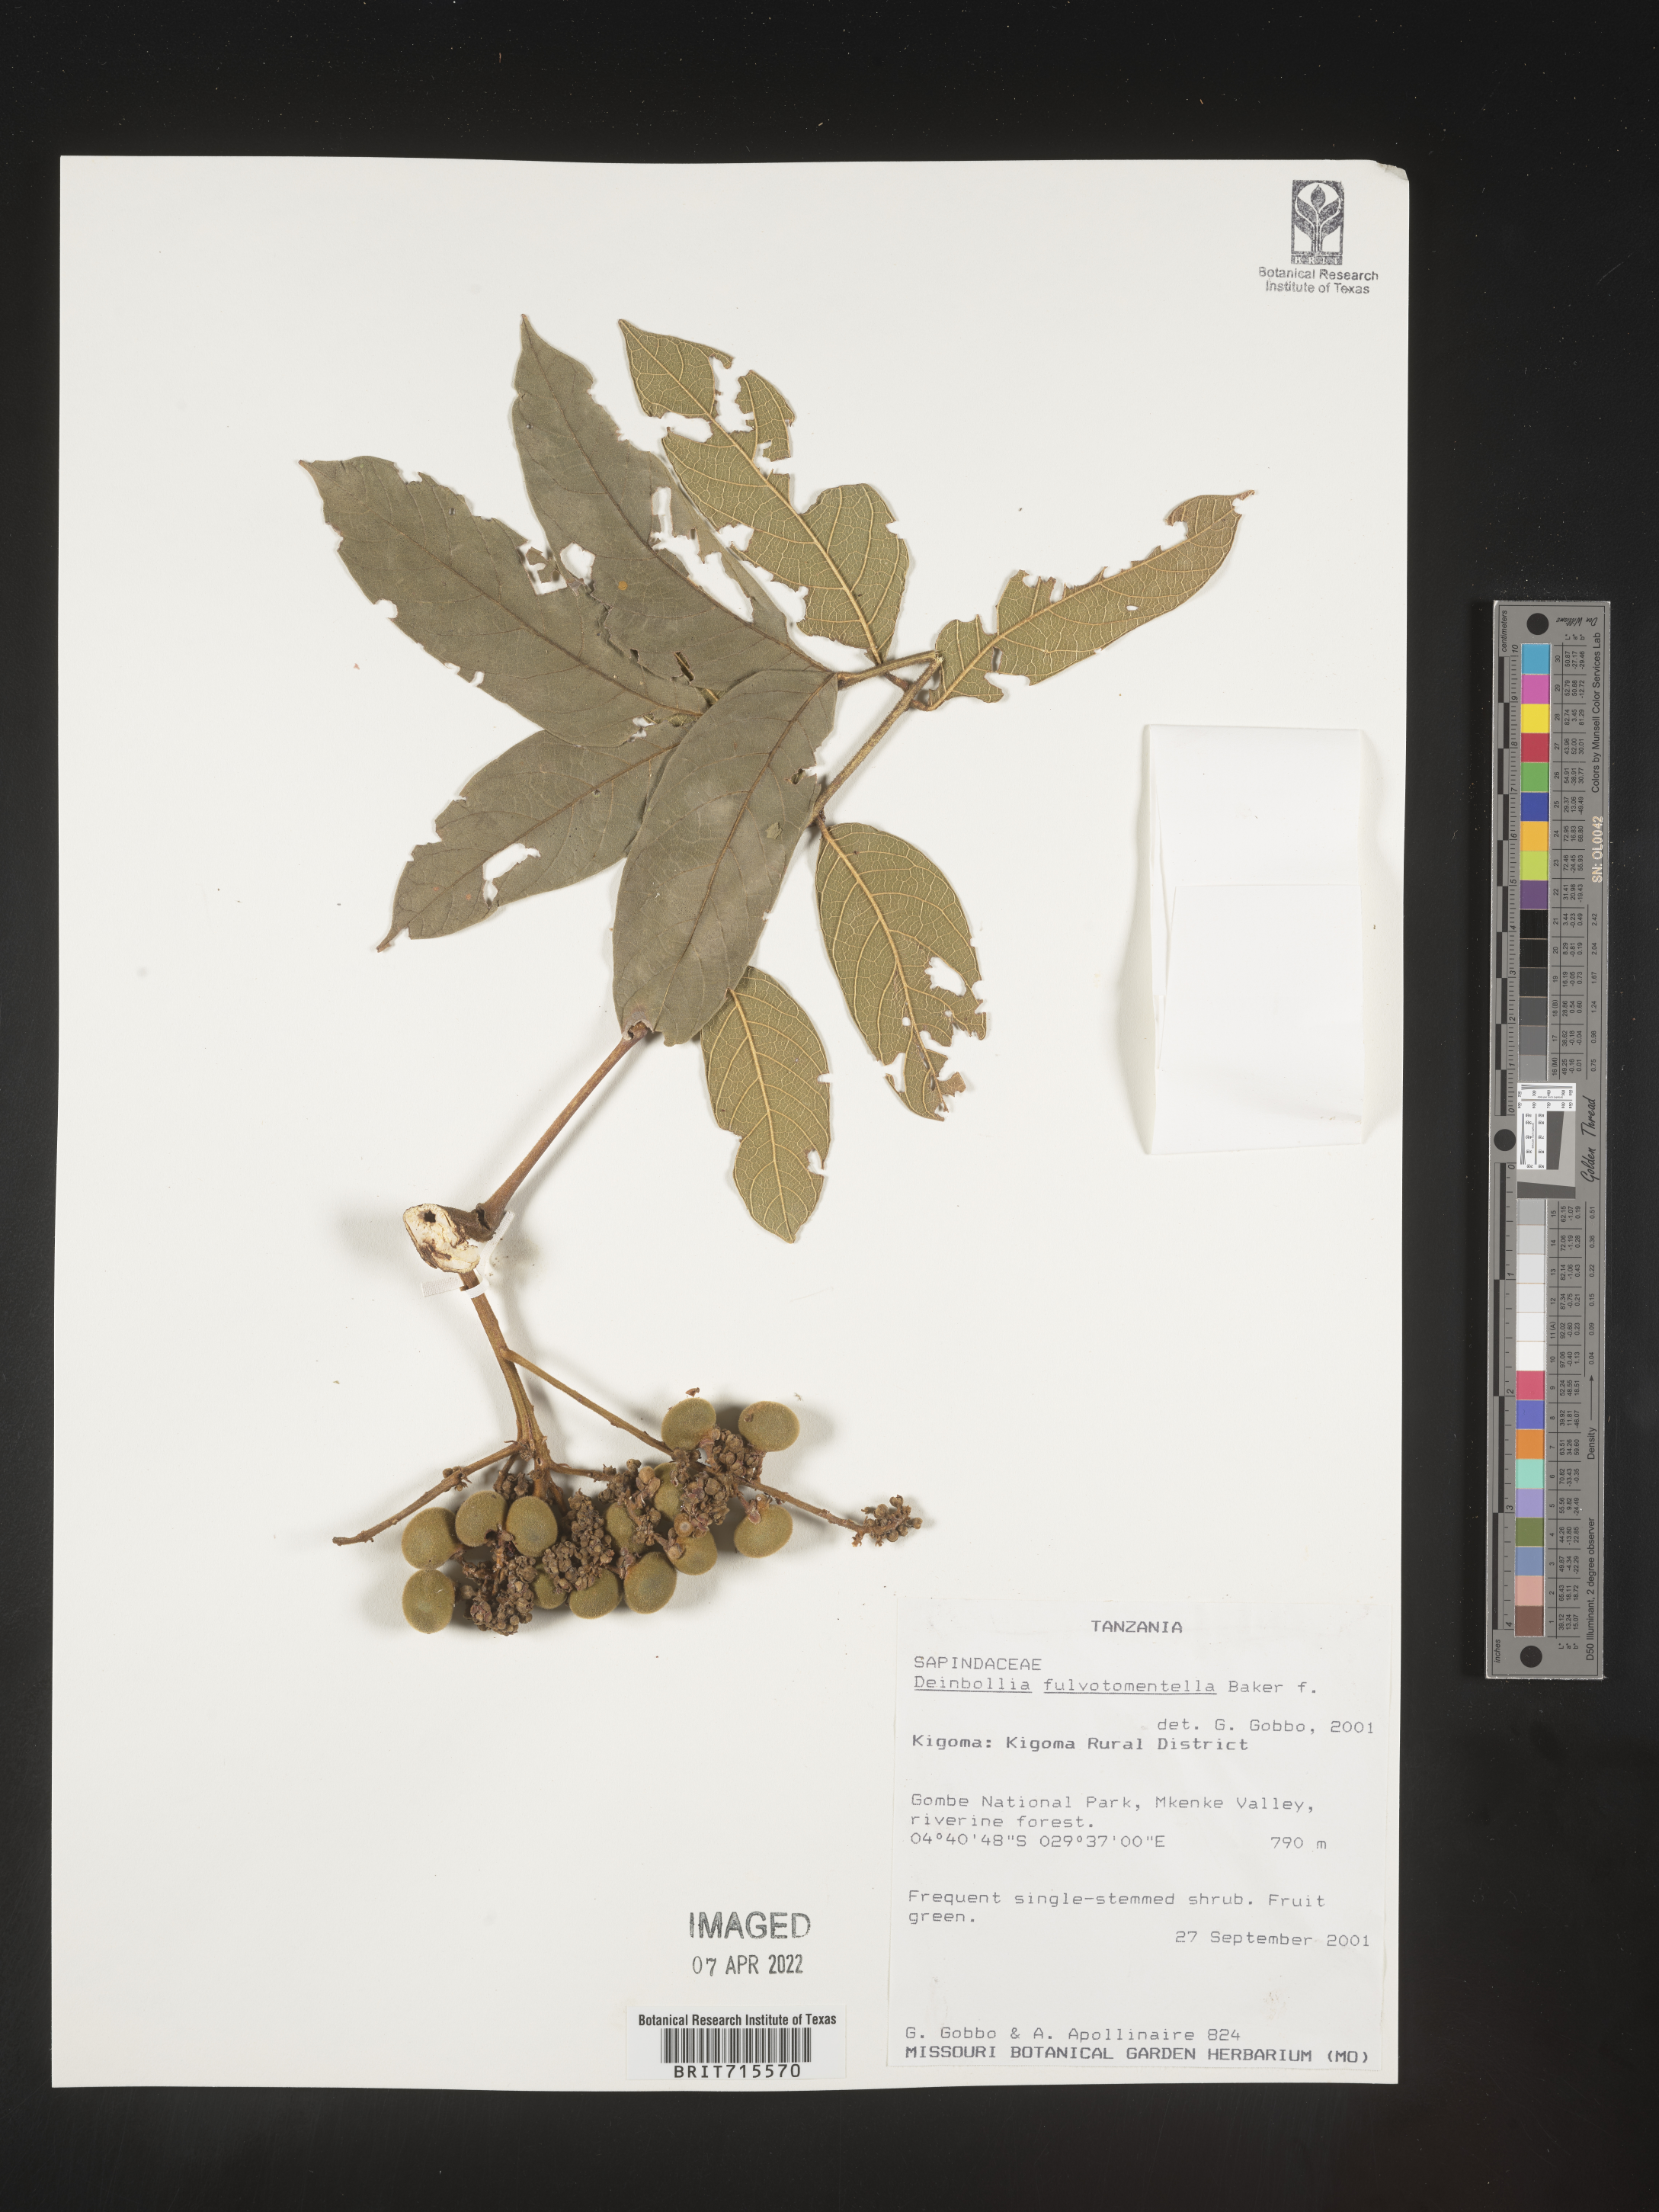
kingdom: Plantae
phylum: Tracheophyta
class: Magnoliopsida
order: Sapindales
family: Sapindaceae
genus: Deinbollia
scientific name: Deinbollia
